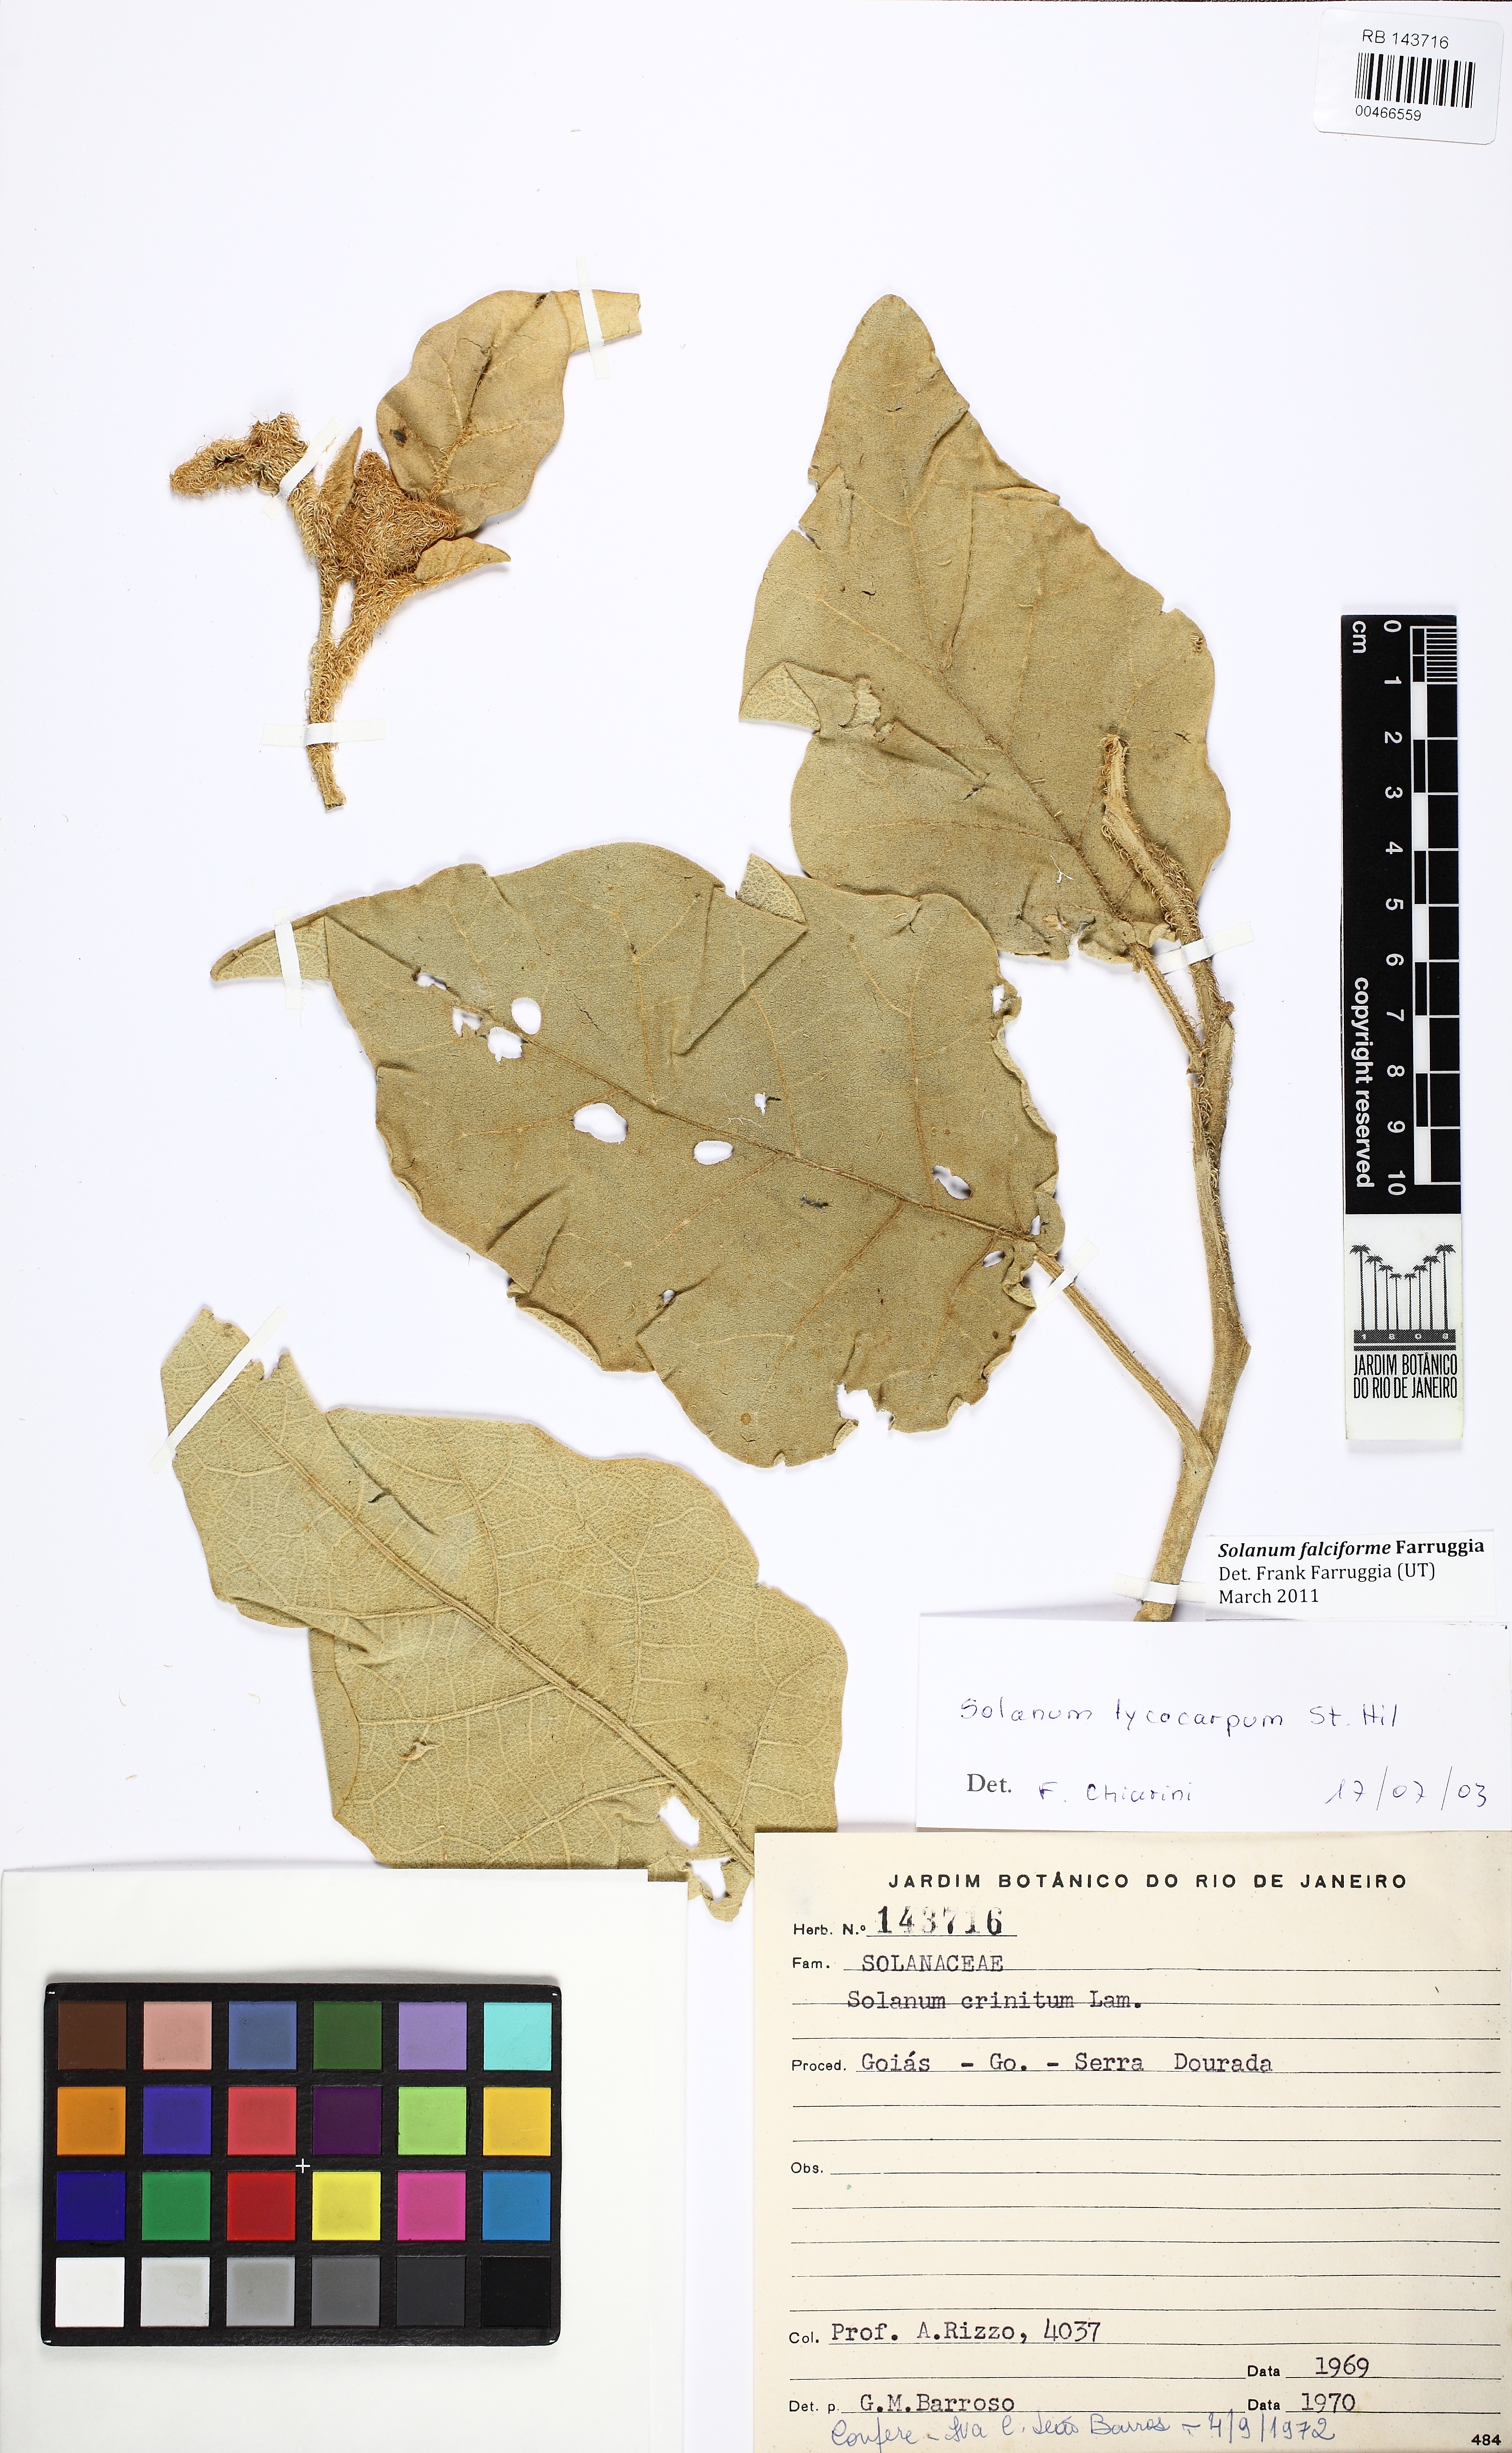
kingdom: Plantae
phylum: Tracheophyta
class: Magnoliopsida
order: Solanales
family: Solanaceae
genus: Solanum
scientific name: Solanum falciforme
